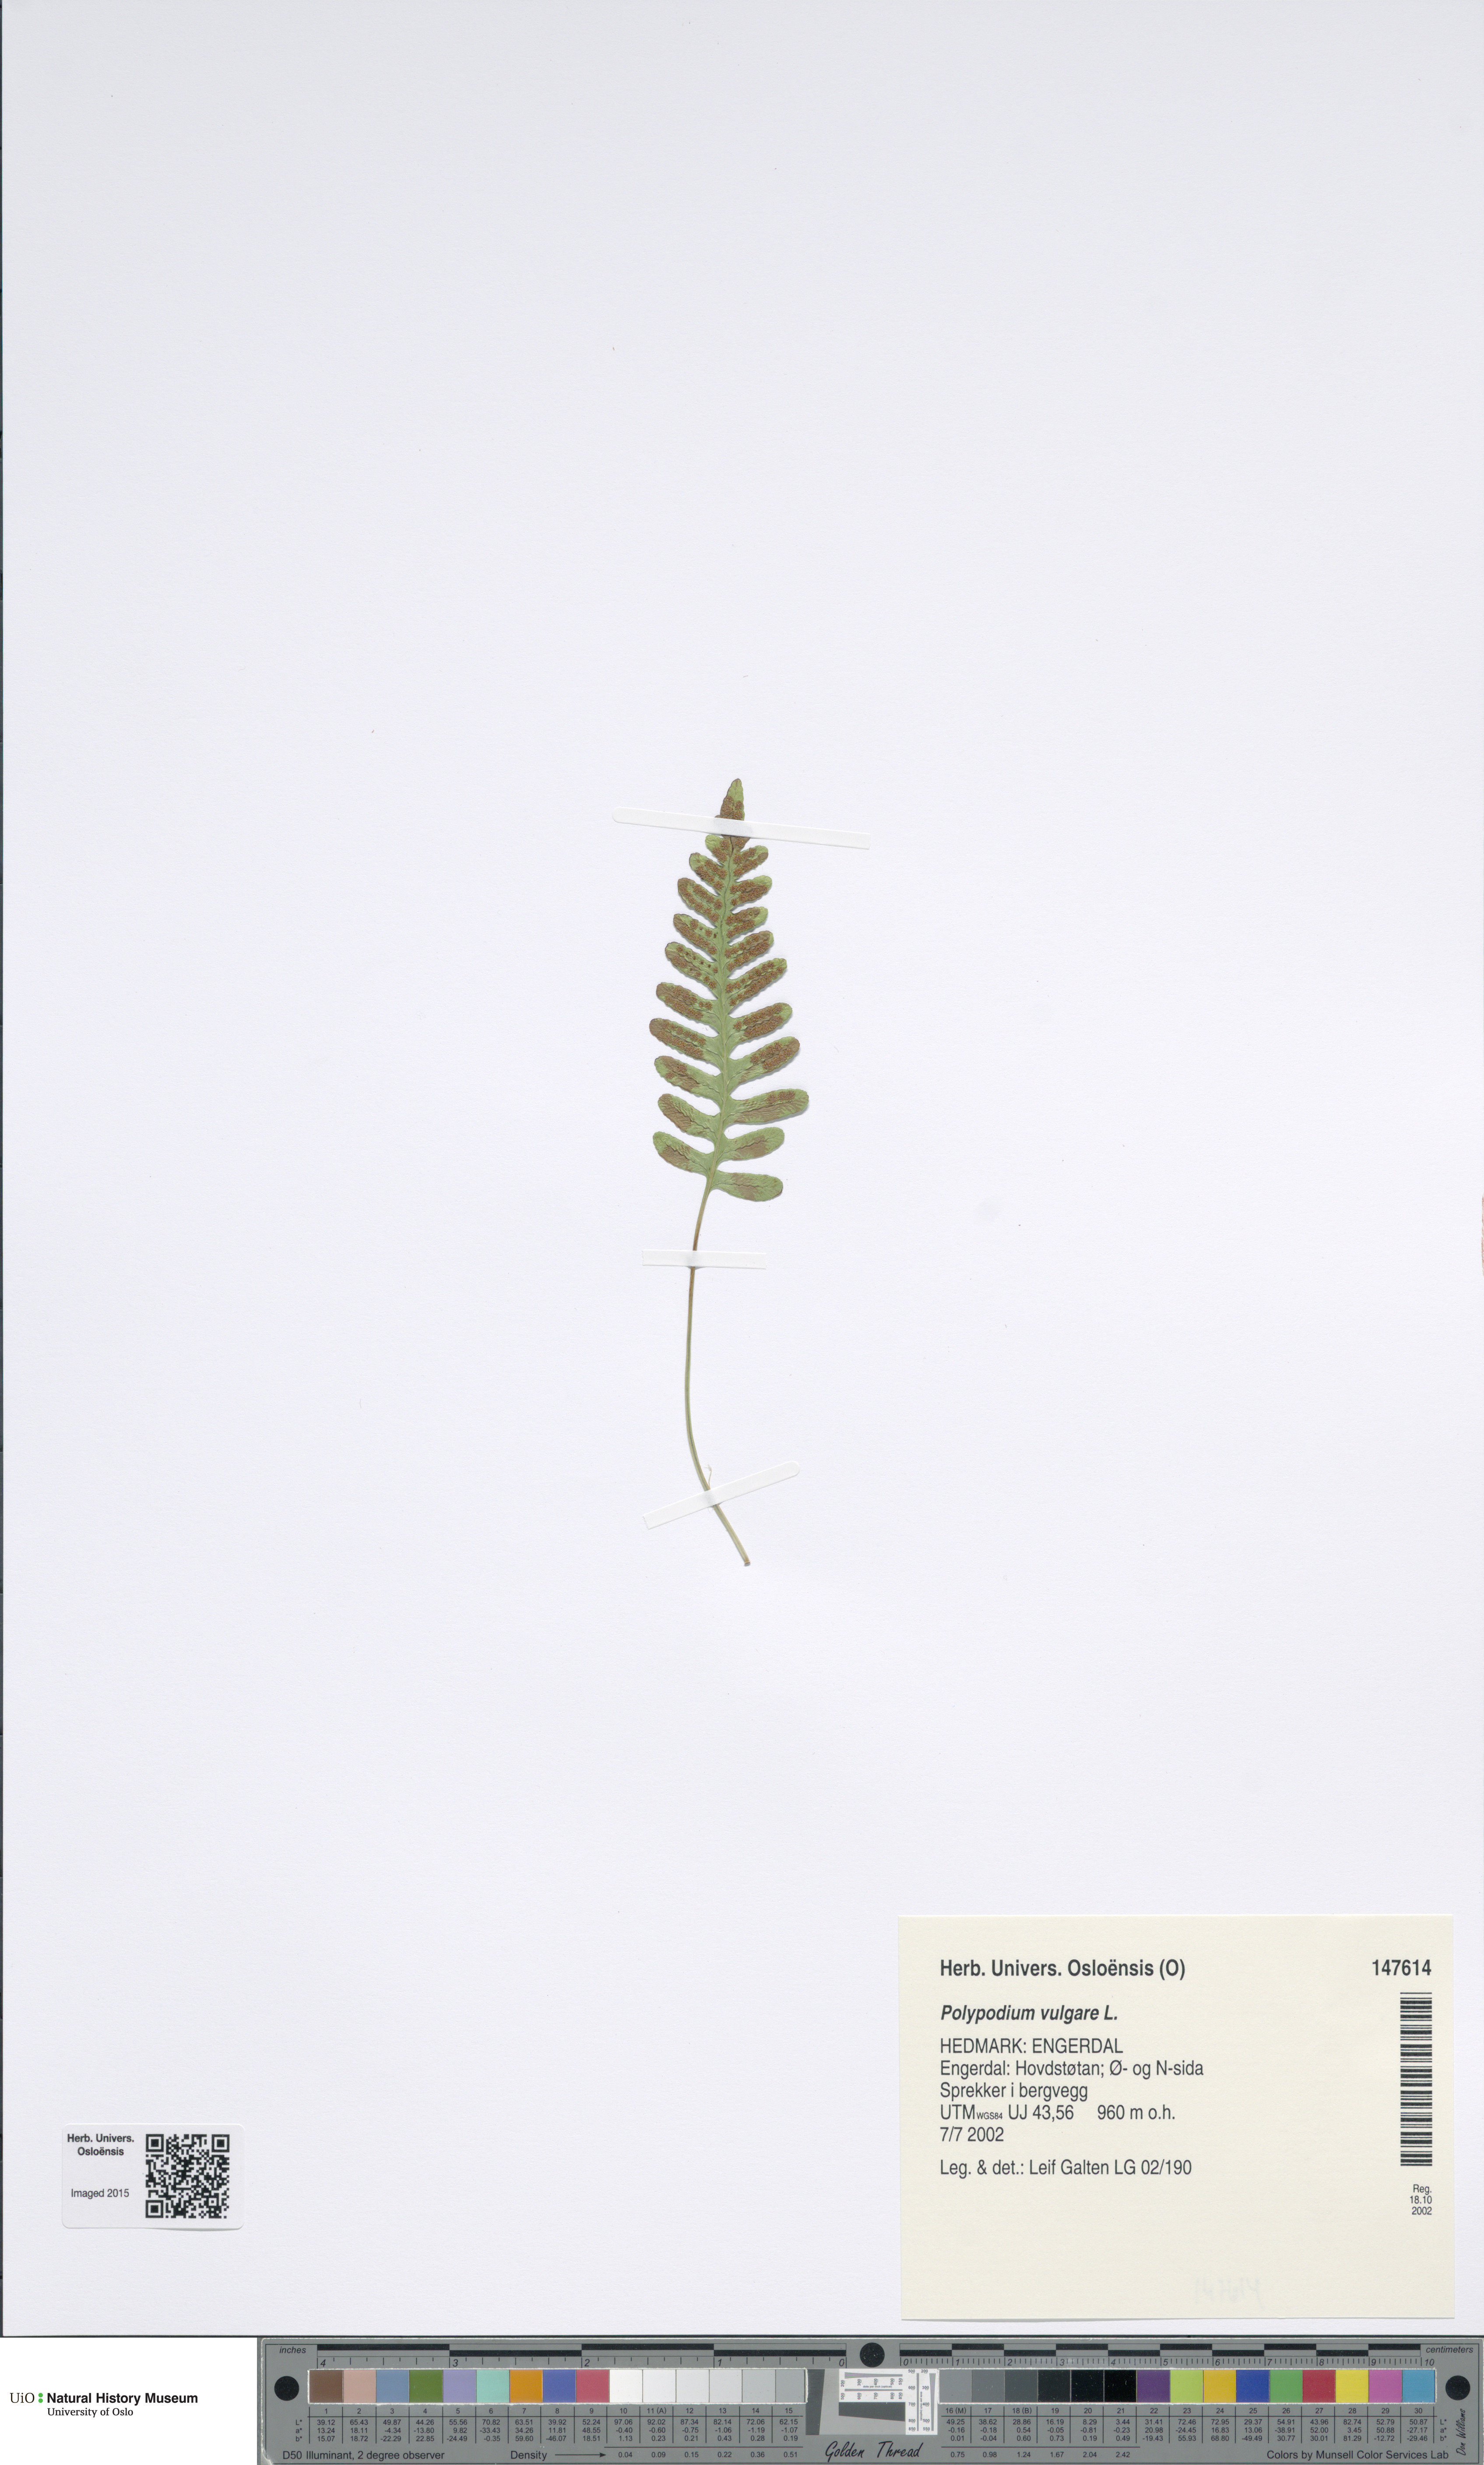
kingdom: Plantae
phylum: Tracheophyta
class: Polypodiopsida
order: Polypodiales
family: Polypodiaceae
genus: Polypodium
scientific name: Polypodium vulgare
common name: Common polypody
